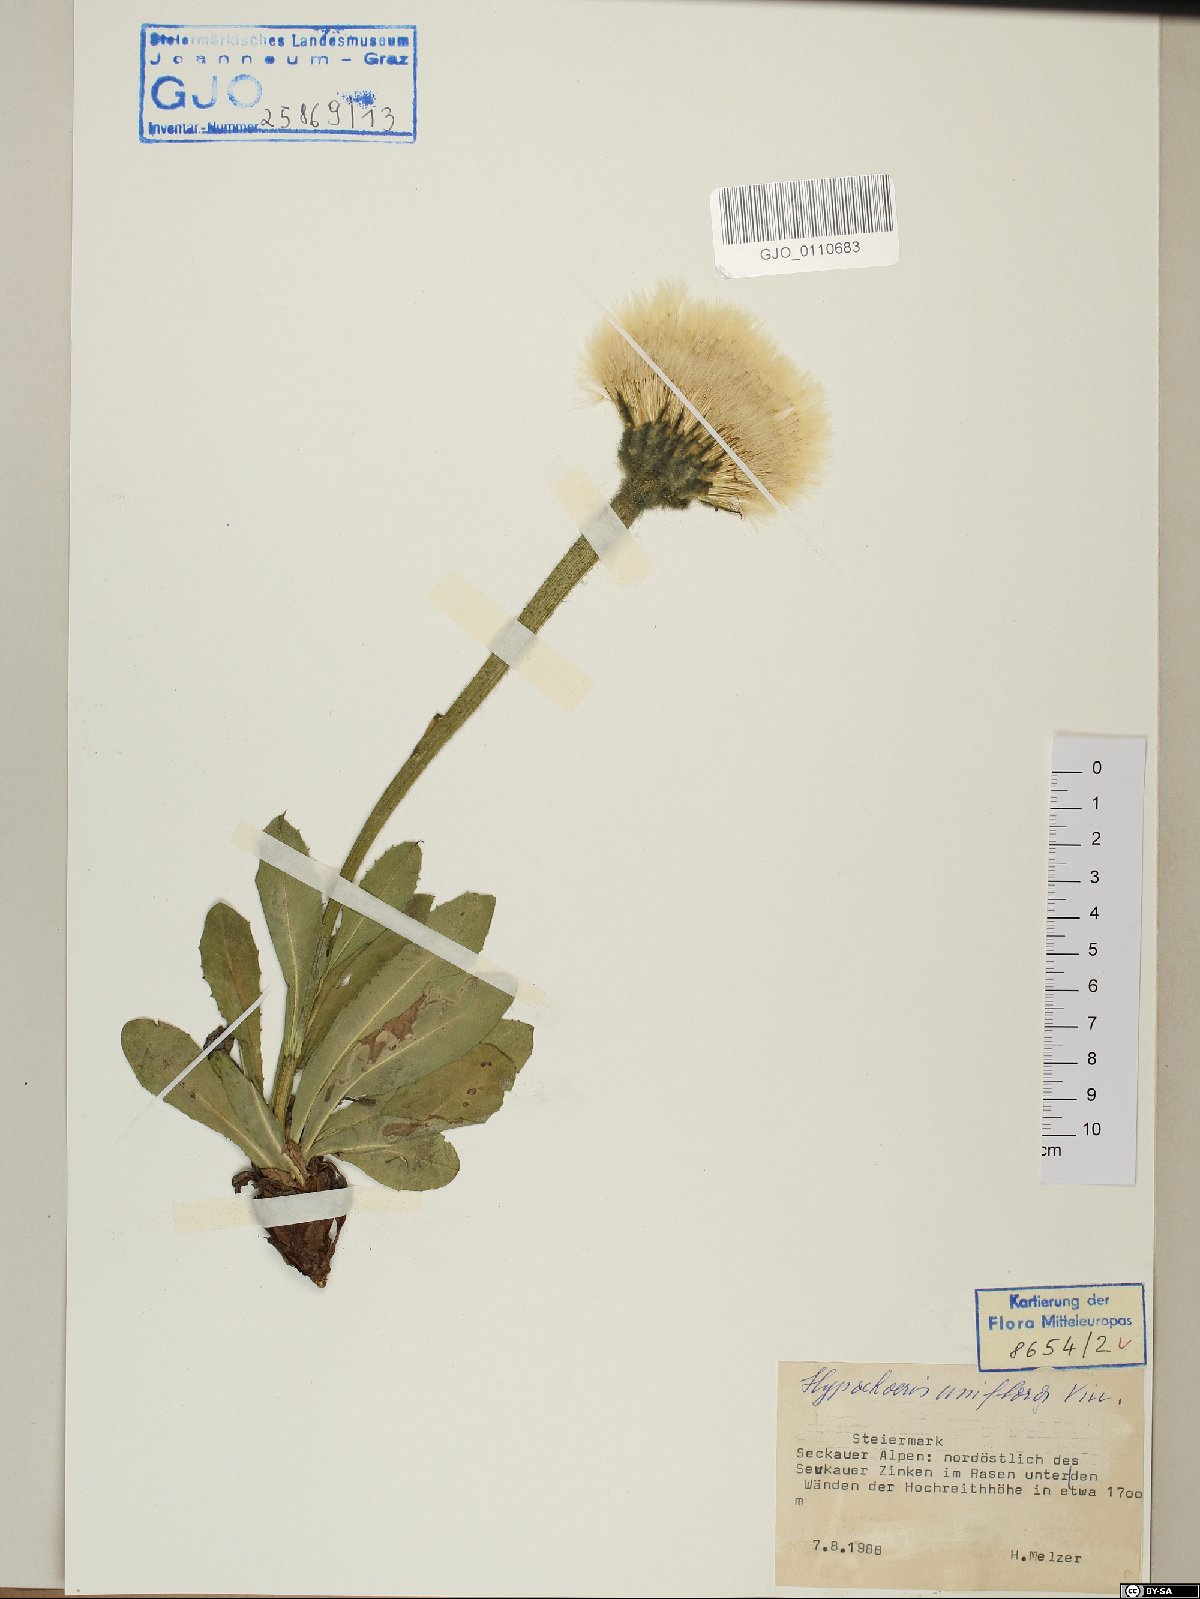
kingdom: Plantae
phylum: Tracheophyta
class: Magnoliopsida
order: Asterales
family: Asteraceae
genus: Trommsdorffia
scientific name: Trommsdorffia uniflora
